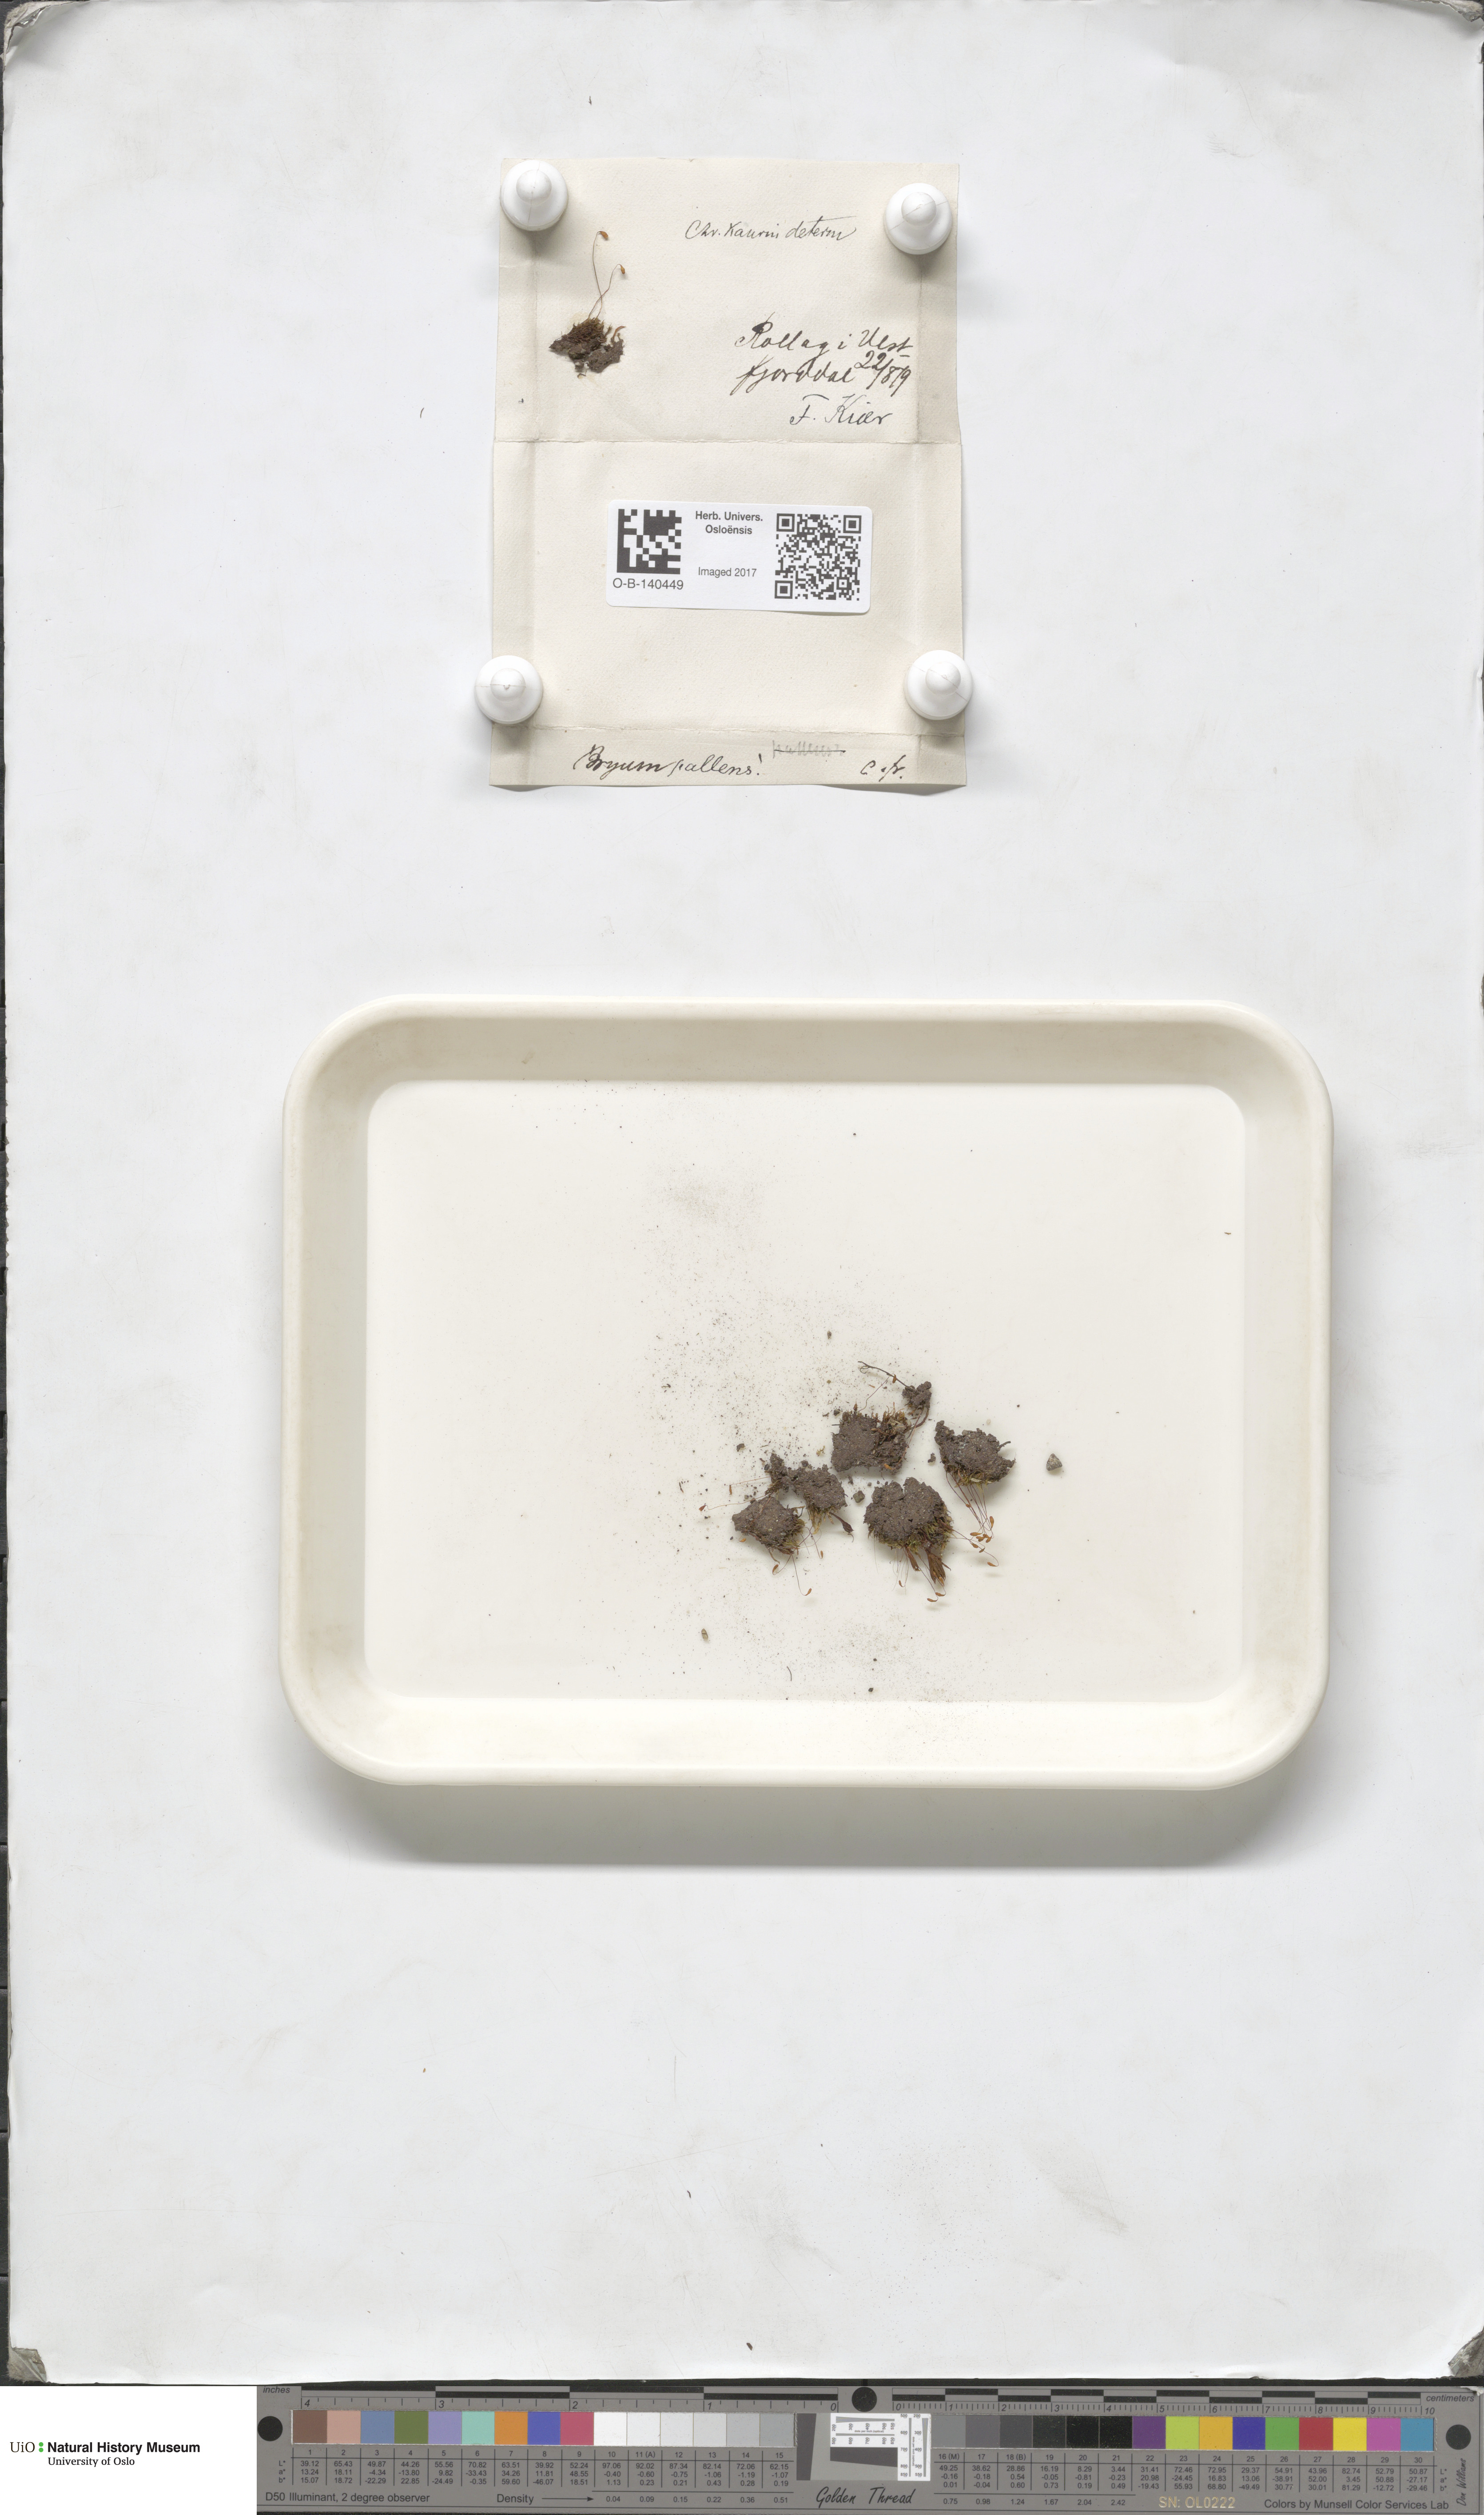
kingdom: Plantae
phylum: Bryophyta
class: Bryopsida
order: Bryales
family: Bryaceae
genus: Ptychostomum
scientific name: Ptychostomum pallens
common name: Pale thread-moss
